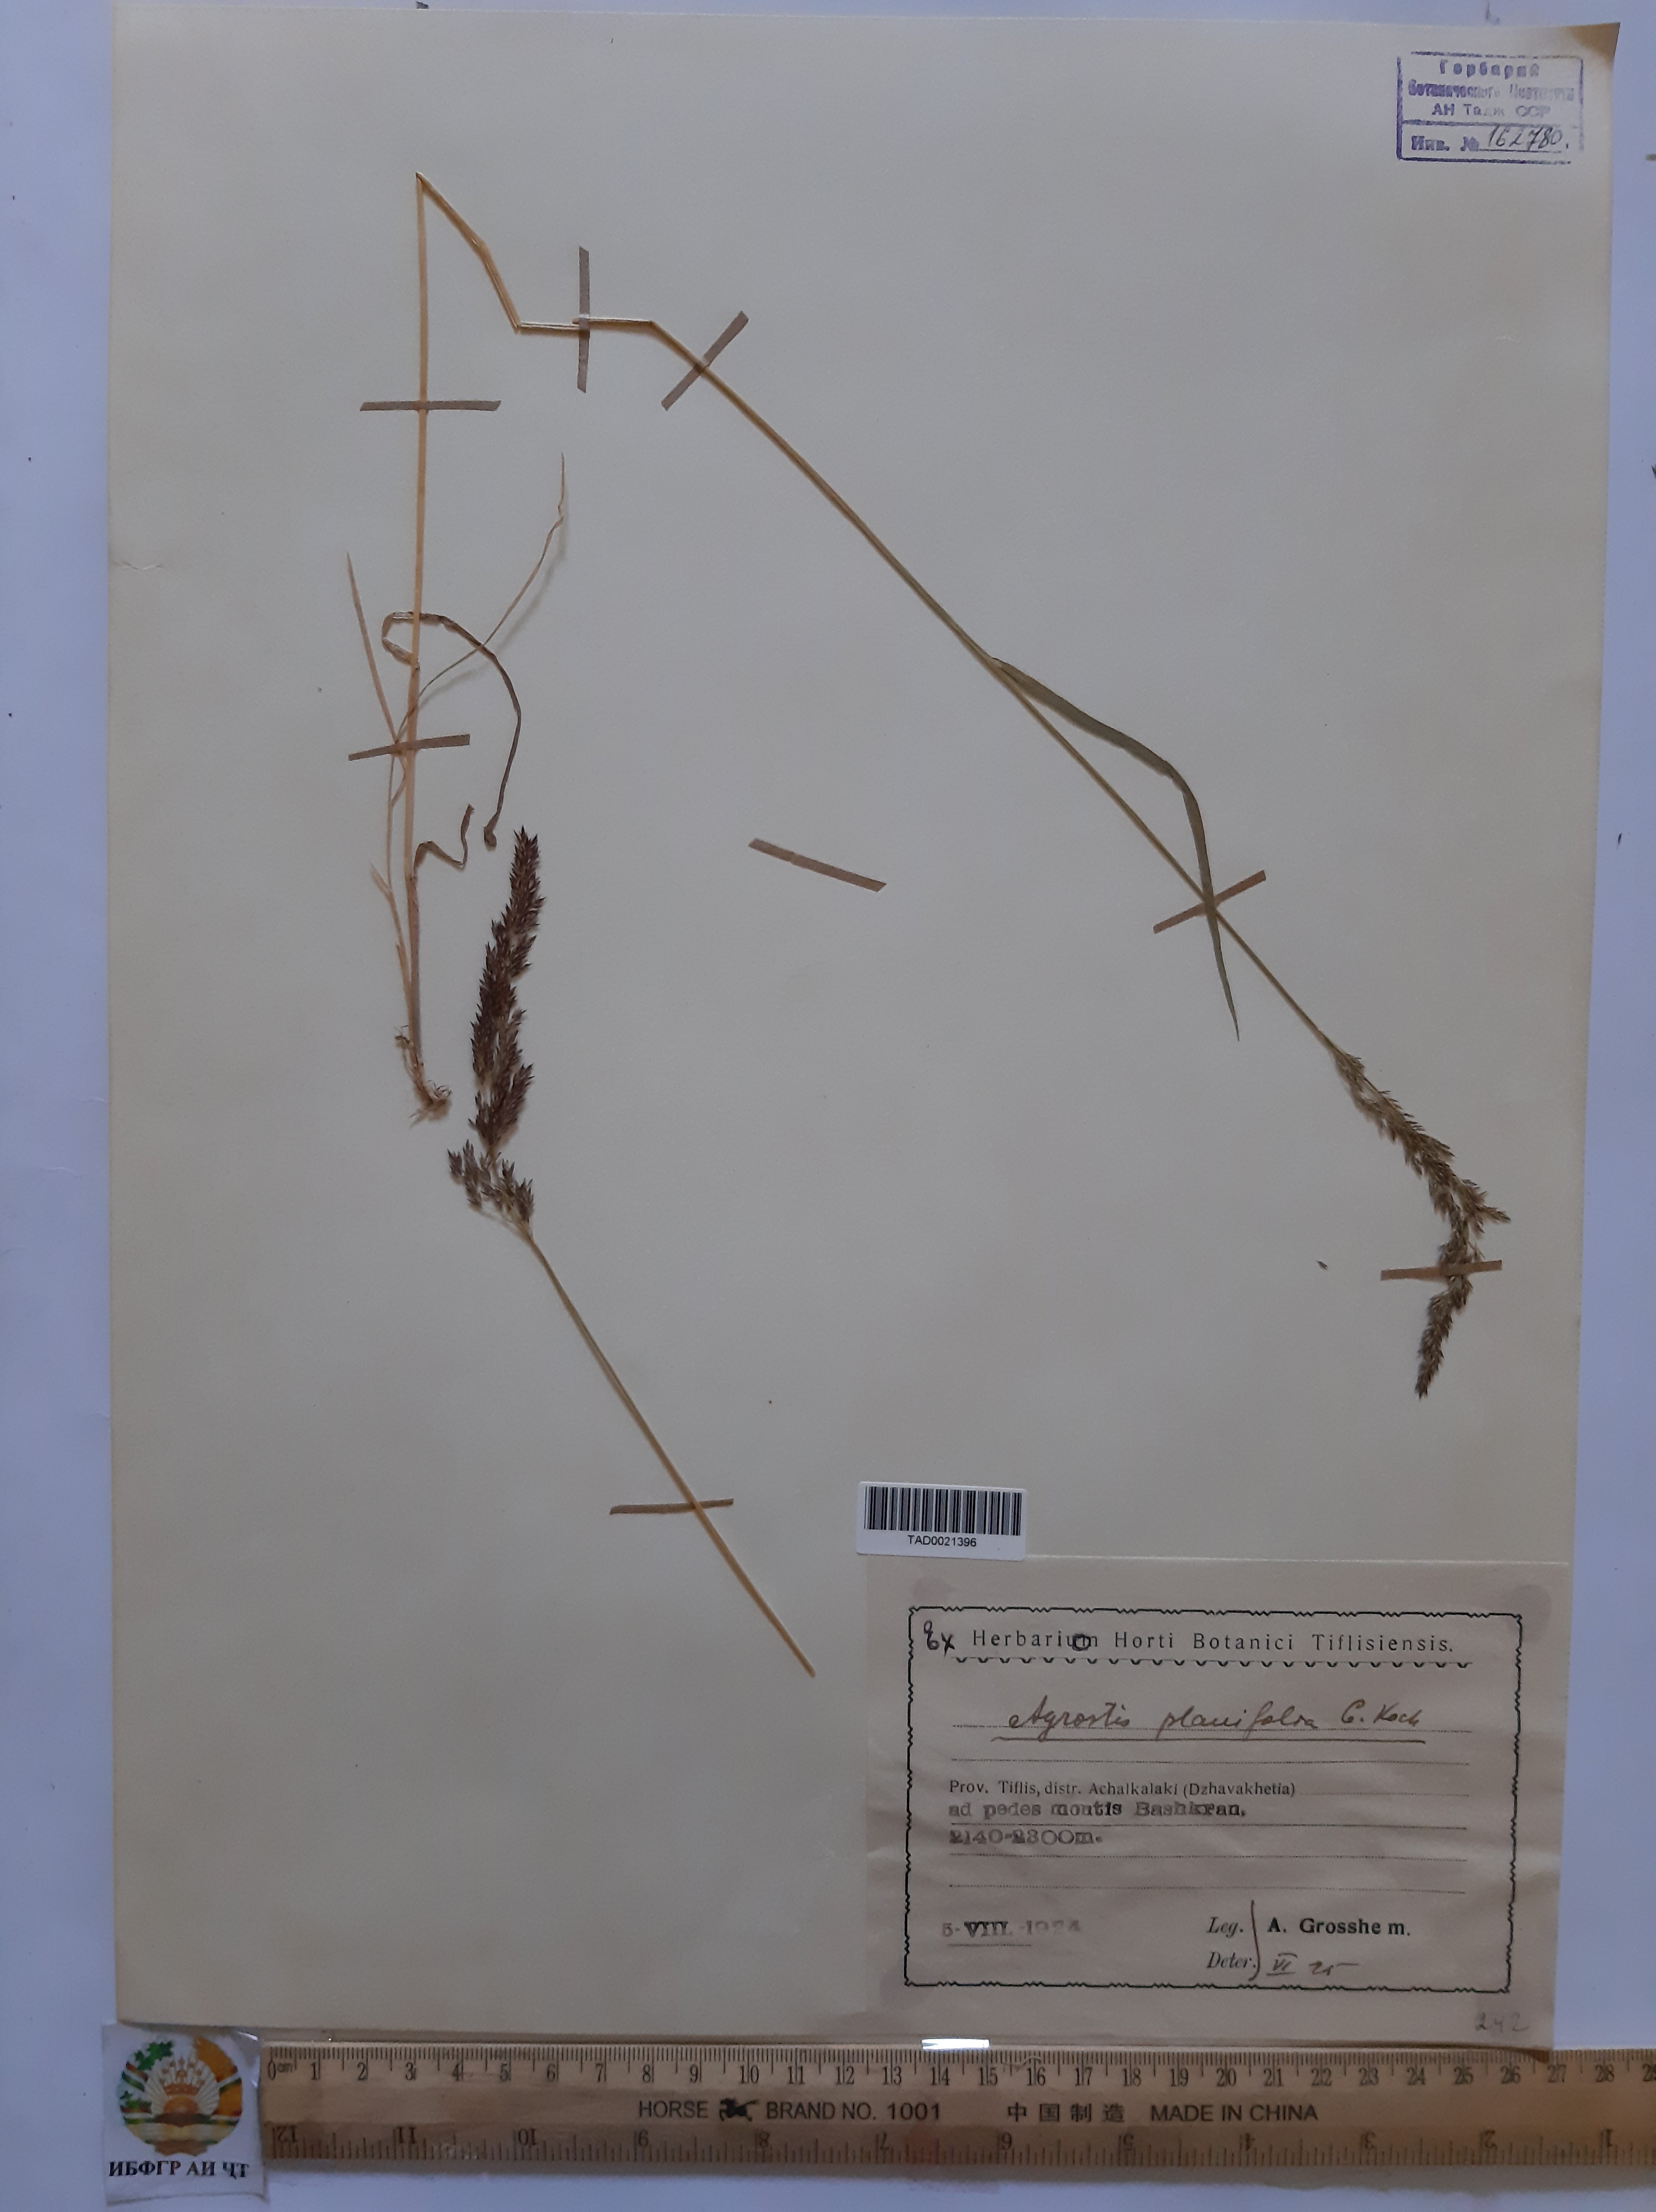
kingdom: Plantae
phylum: Tracheophyta
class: Liliopsida
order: Poales
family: Poaceae
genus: Agrostis
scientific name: Agrostis vinealis
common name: Brown bent
